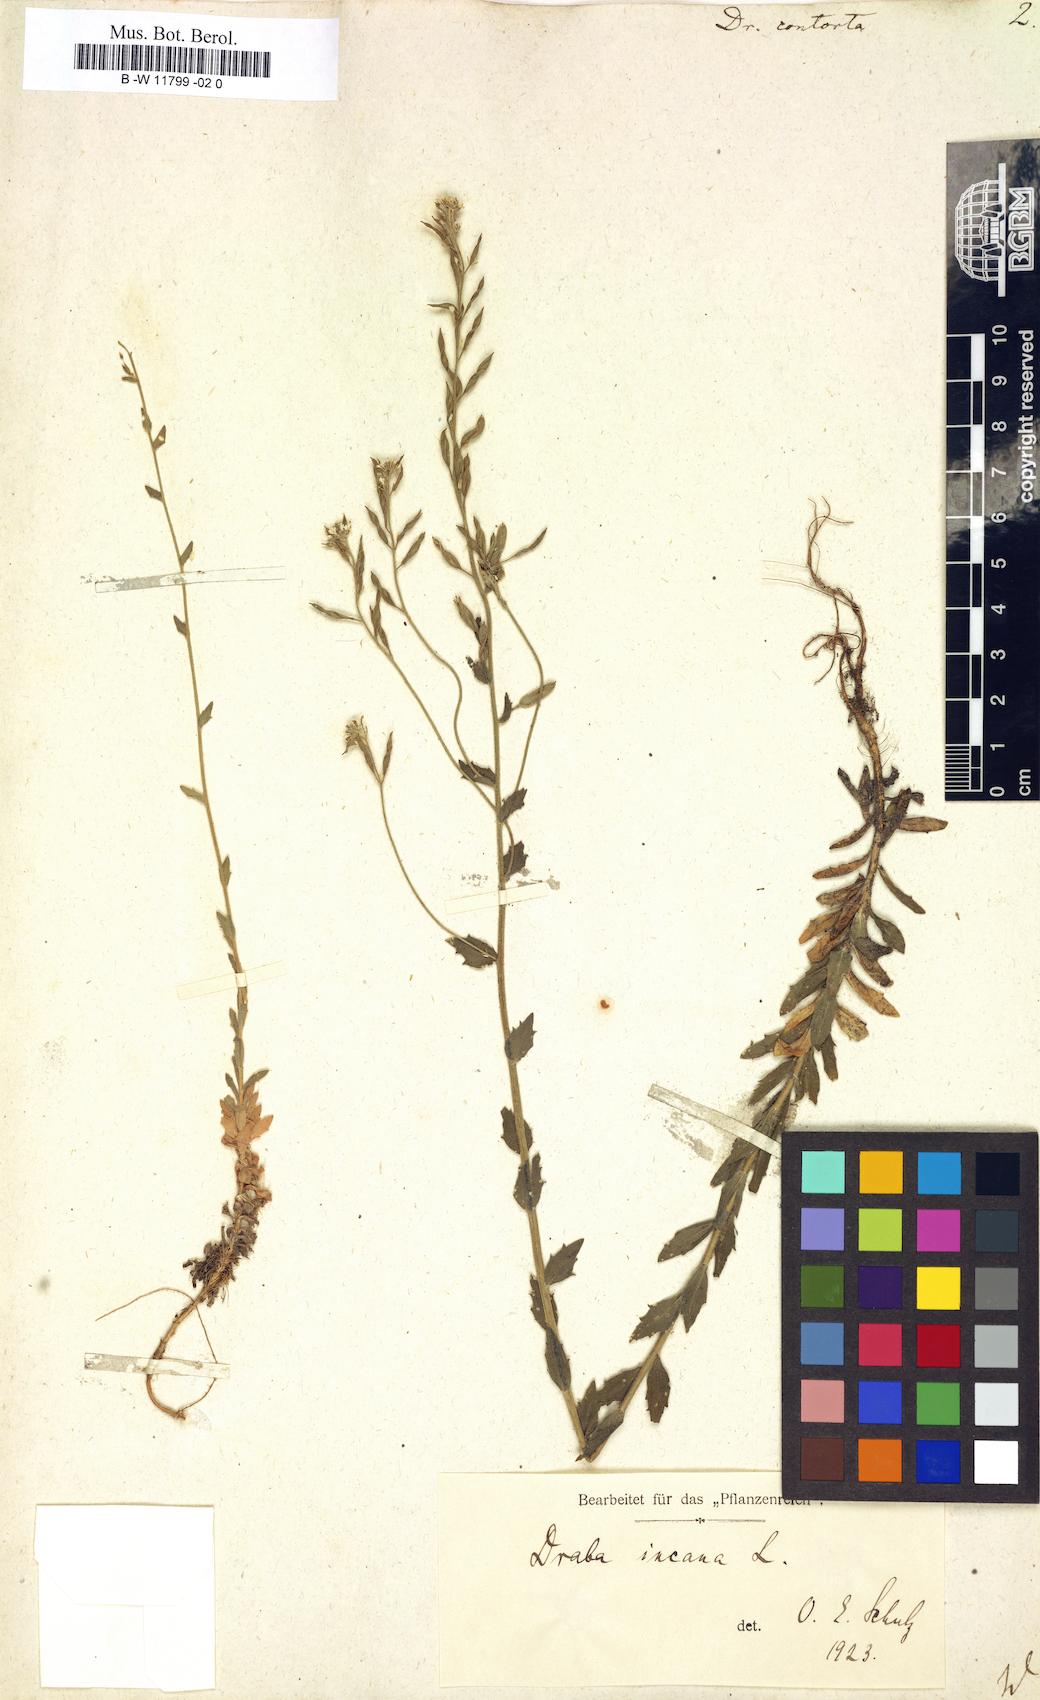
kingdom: Plantae
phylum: Tracheophyta
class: Magnoliopsida
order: Brassicales
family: Brassicaceae
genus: Draba
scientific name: Draba incana
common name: Hoary whitlow-grass
